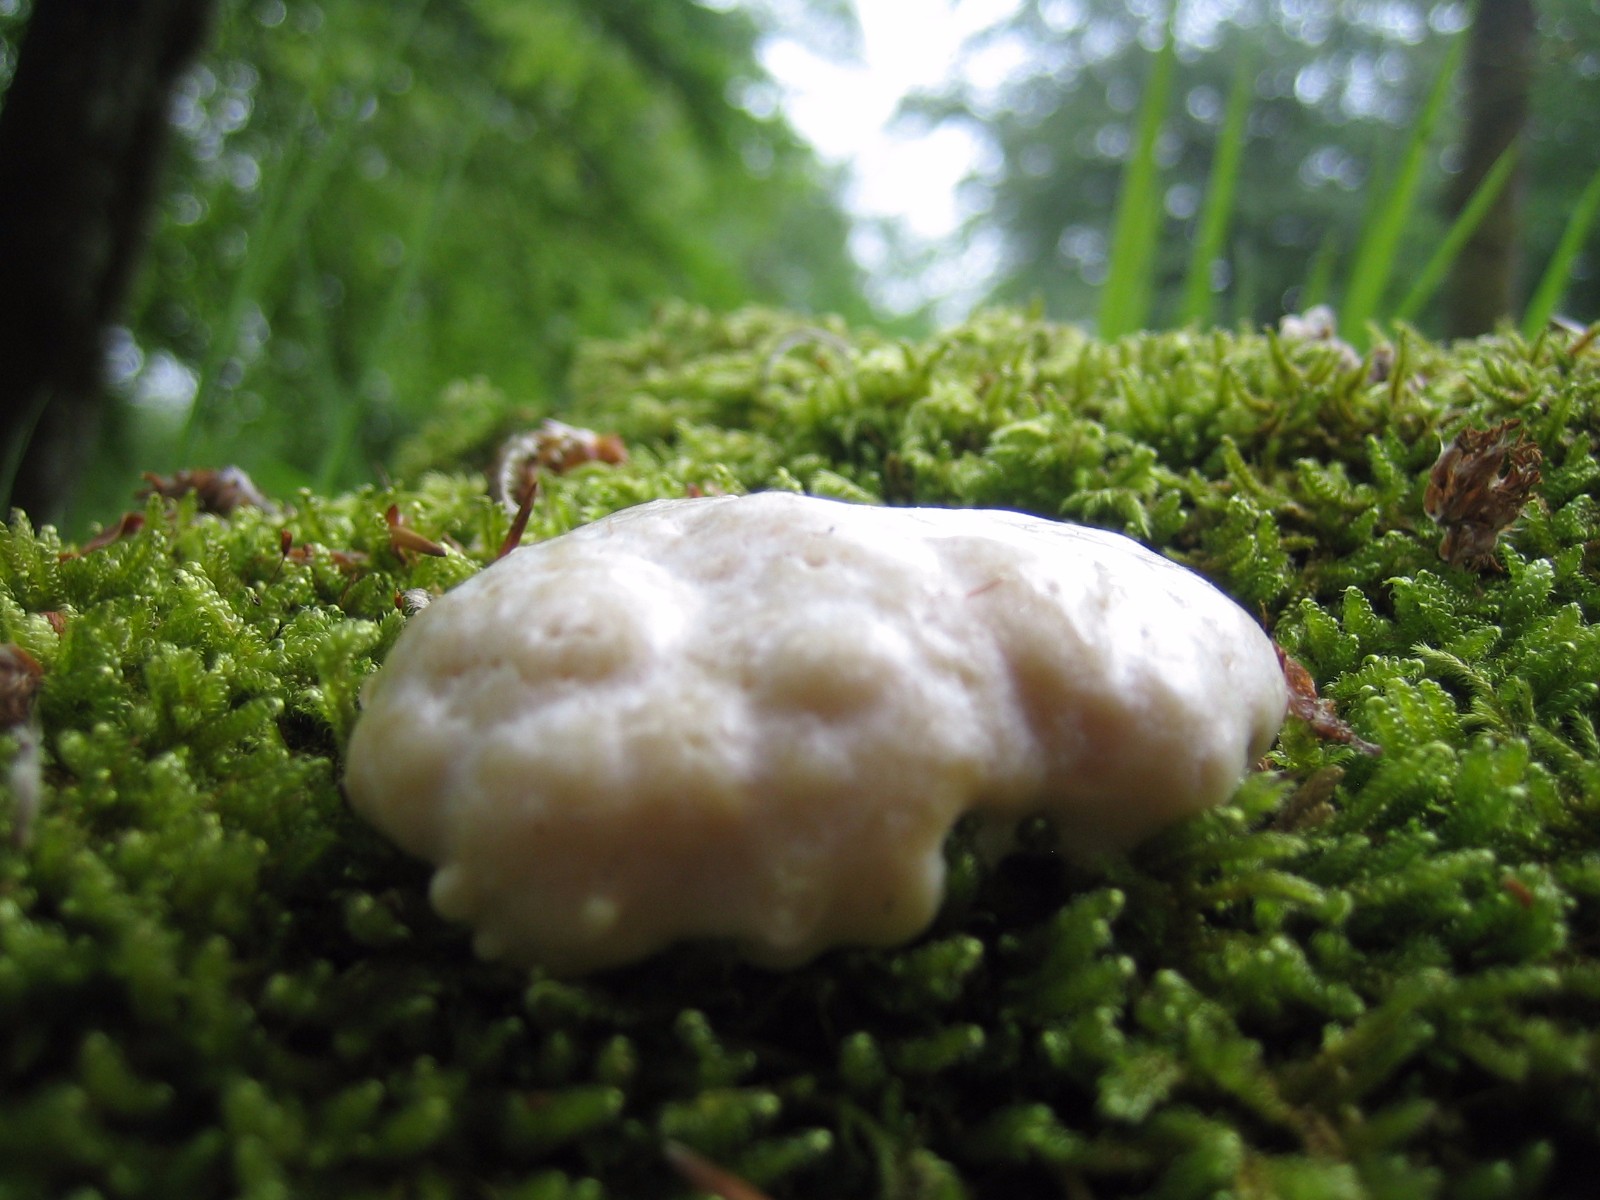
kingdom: Protozoa
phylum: Mycetozoa
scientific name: Mycetozoa
